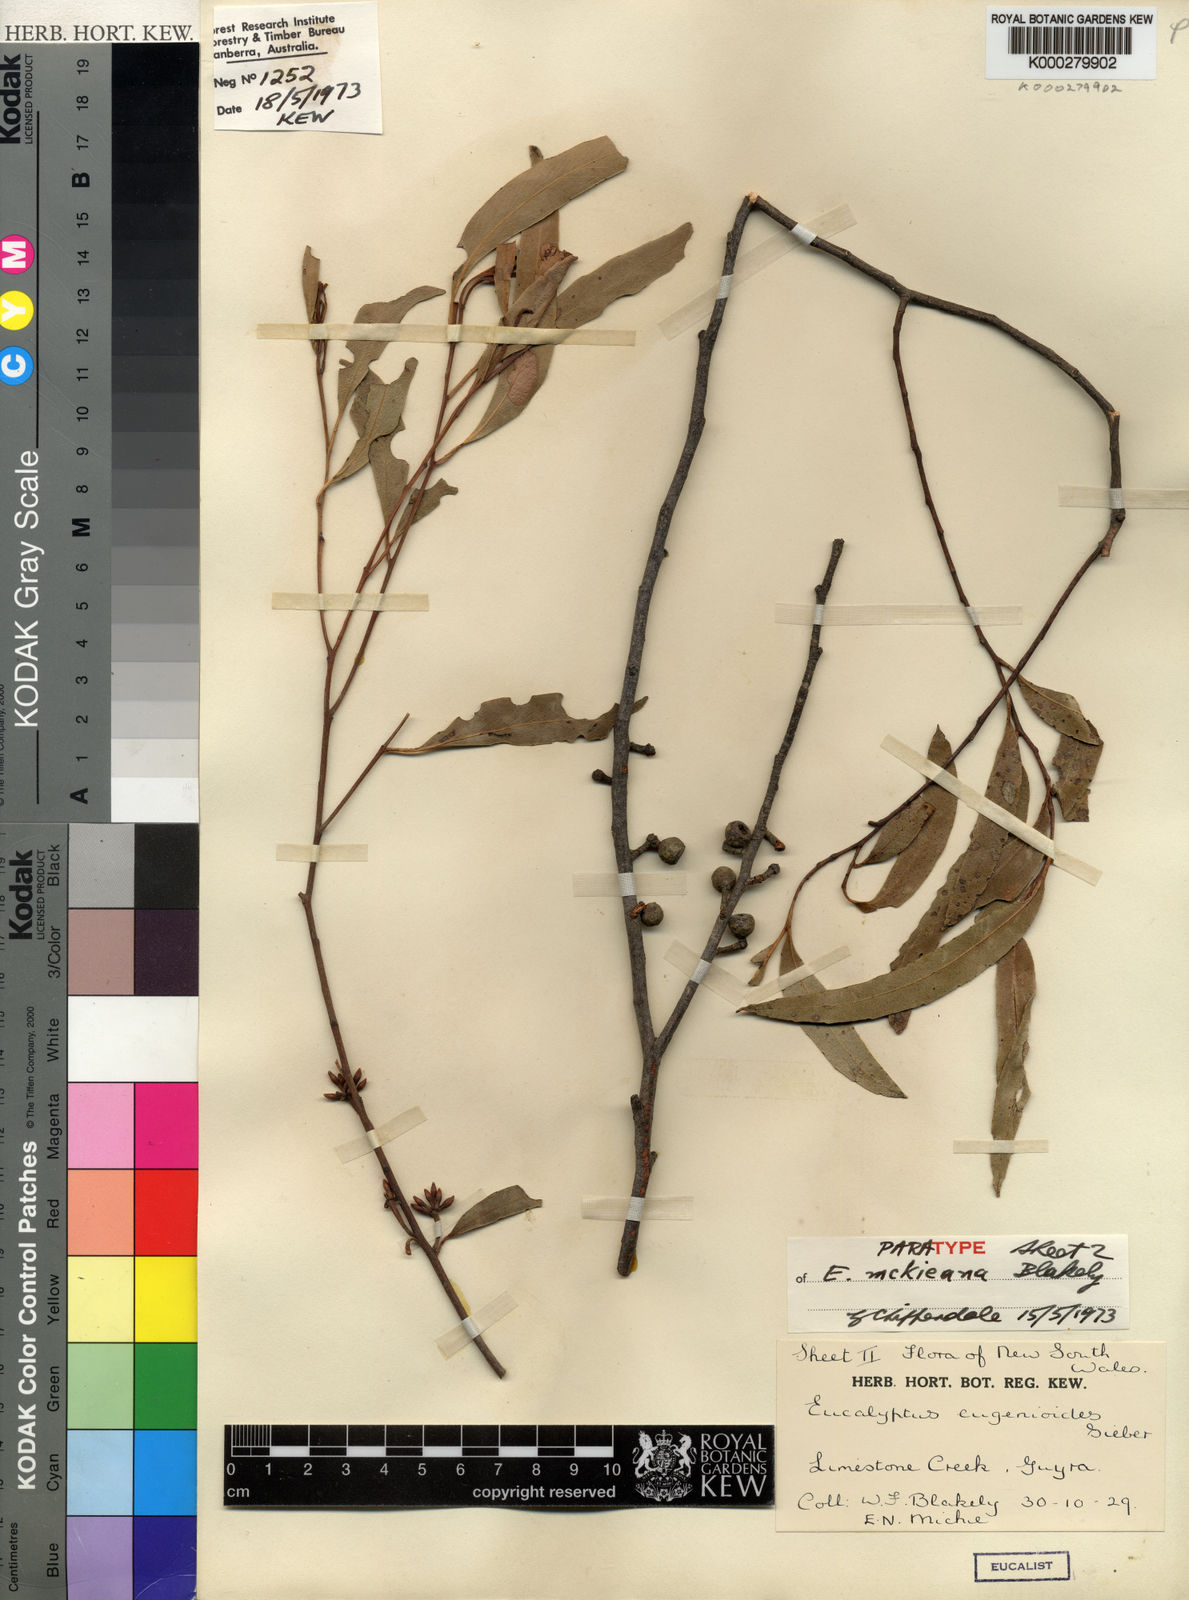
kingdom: Plantae
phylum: Tracheophyta
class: Magnoliopsida
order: Myrtales
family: Myrtaceae
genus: Eucalyptus
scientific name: Eucalyptus mckieana
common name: Mckie's stringybark
